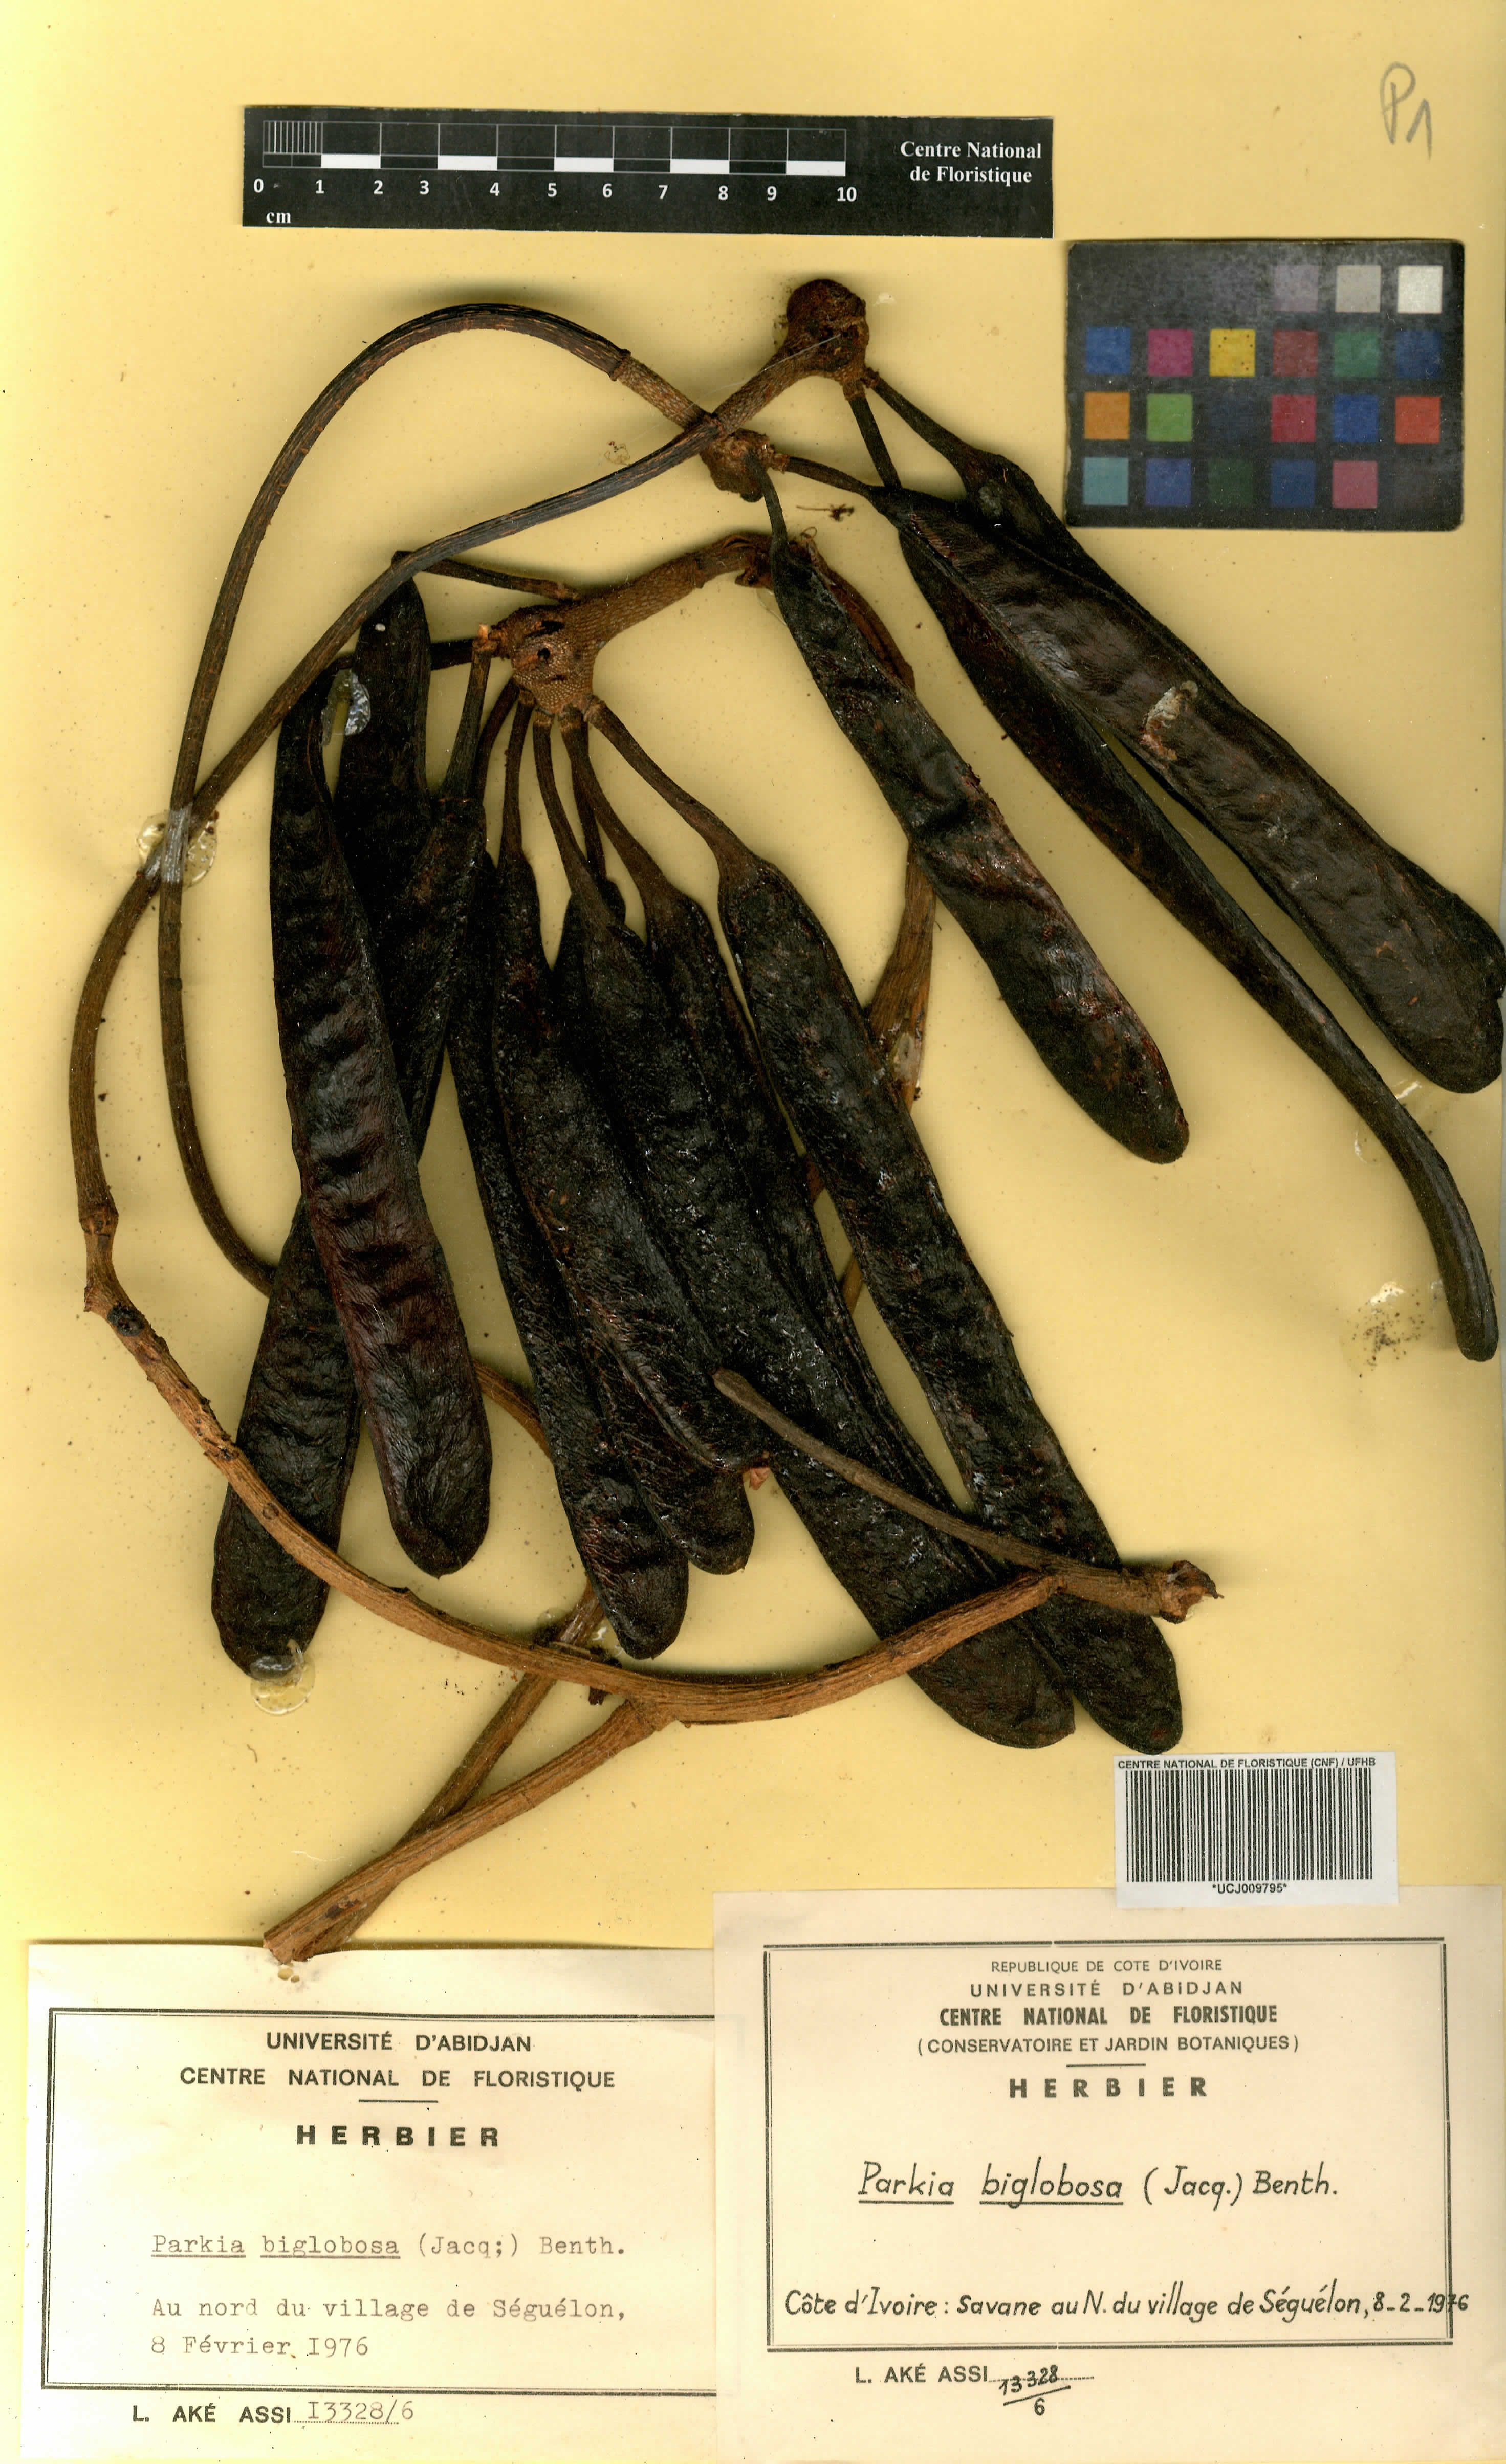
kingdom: Plantae
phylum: Tracheophyta
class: Magnoliopsida
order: Fabales
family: Fabaceae
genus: Parkia
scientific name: Parkia timoriana
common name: Legume
